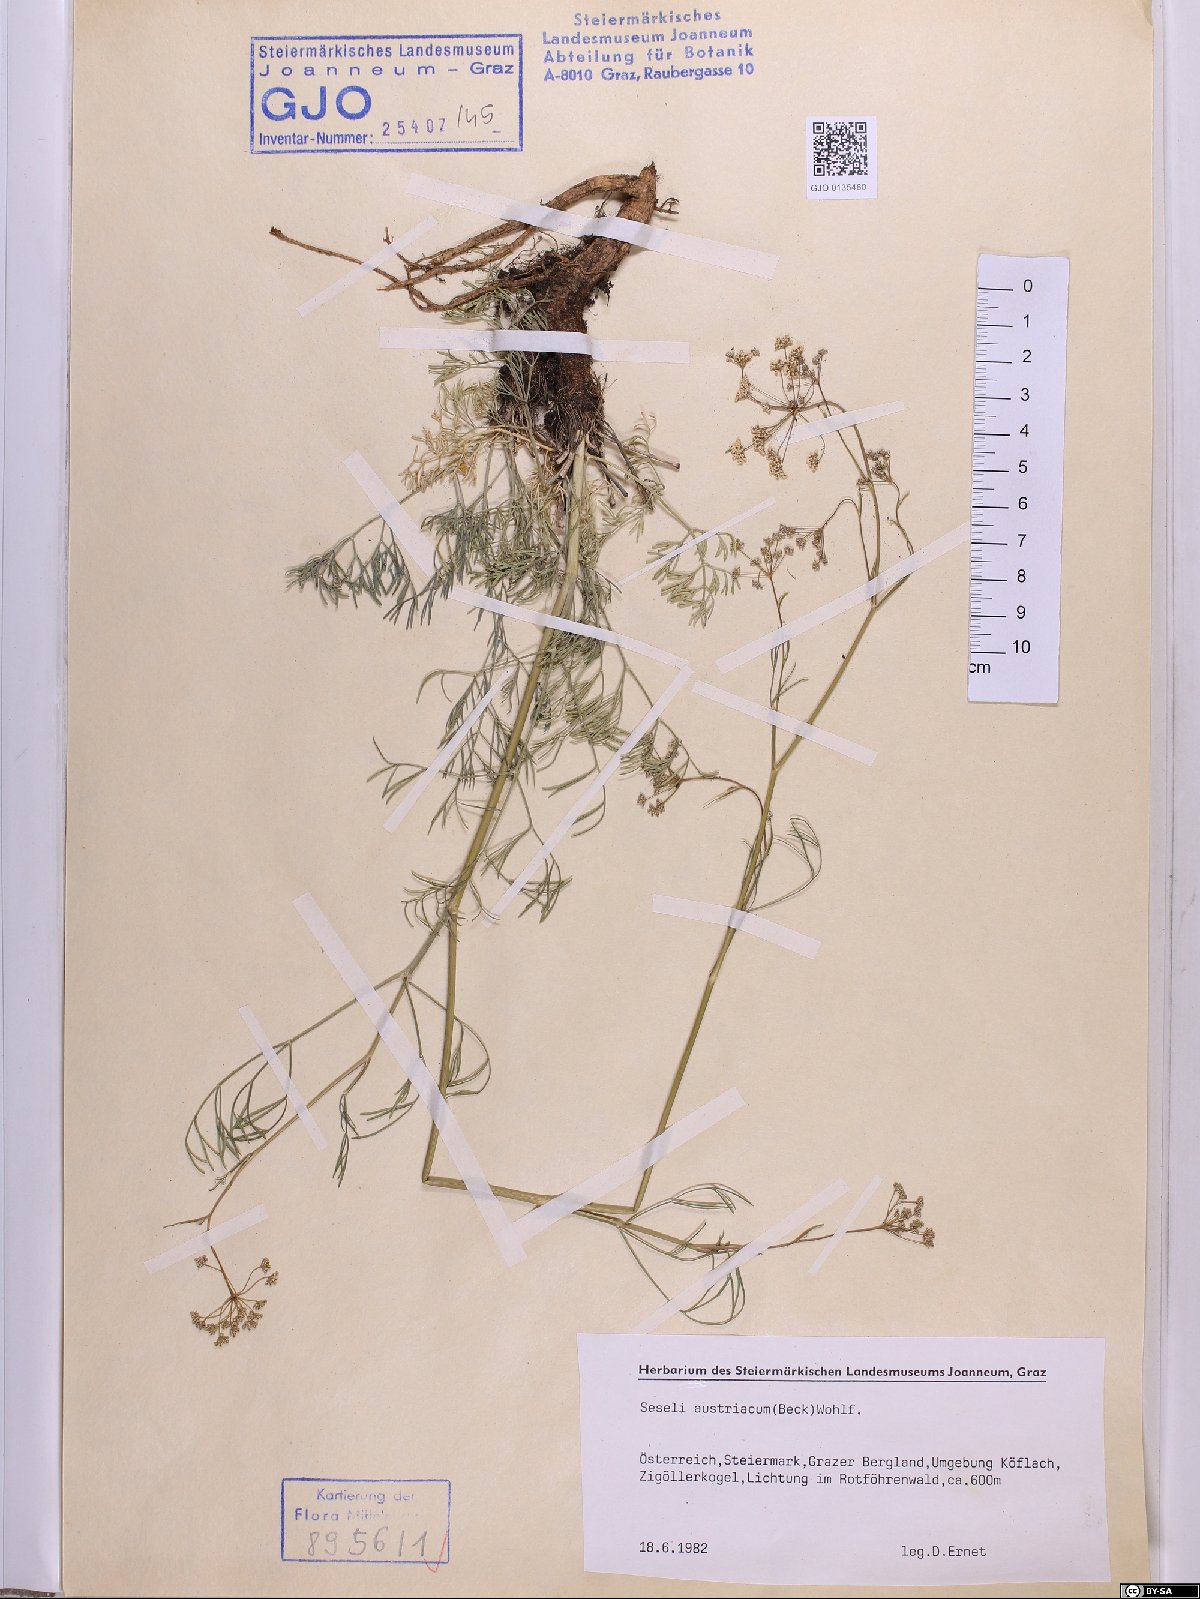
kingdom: Plantae
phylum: Tracheophyta
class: Magnoliopsida
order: Apiales
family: Apiaceae
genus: Seseli
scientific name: Seseli austriacum
